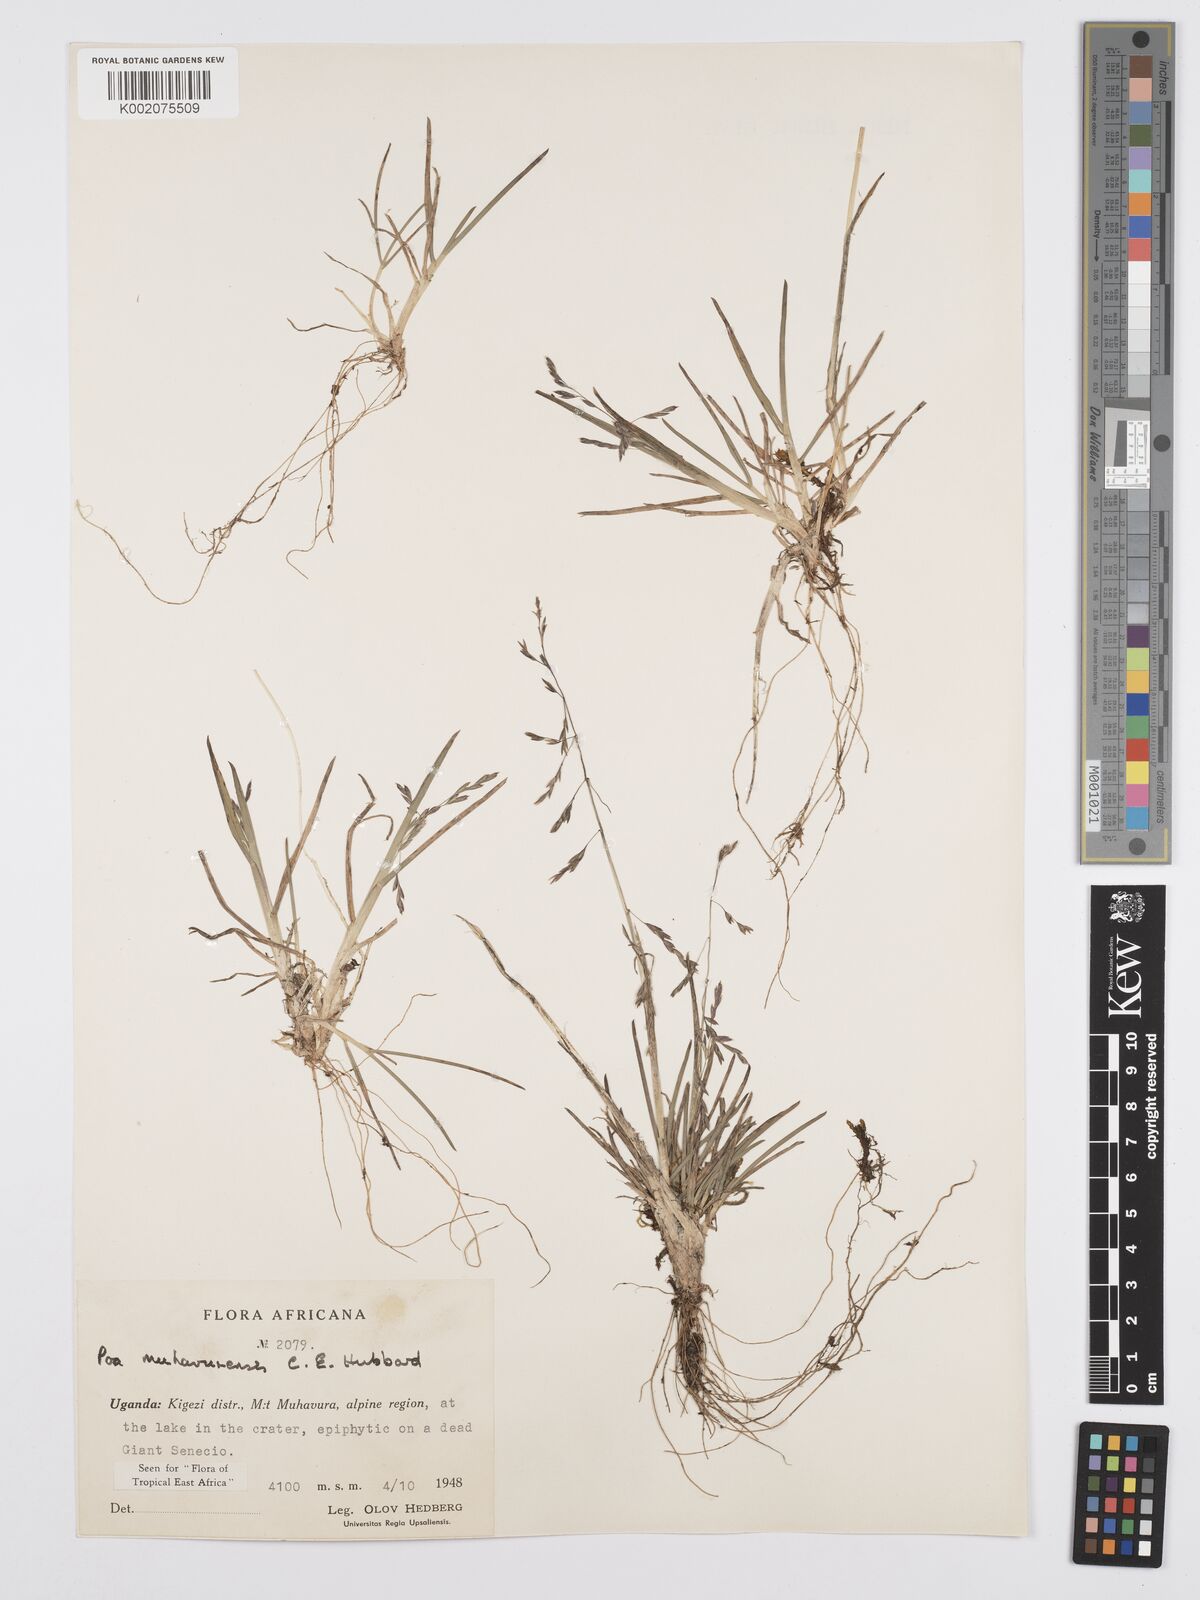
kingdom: Plantae
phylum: Tracheophyta
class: Liliopsida
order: Poales
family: Poaceae
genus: Poa
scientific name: Poa schimperiana
